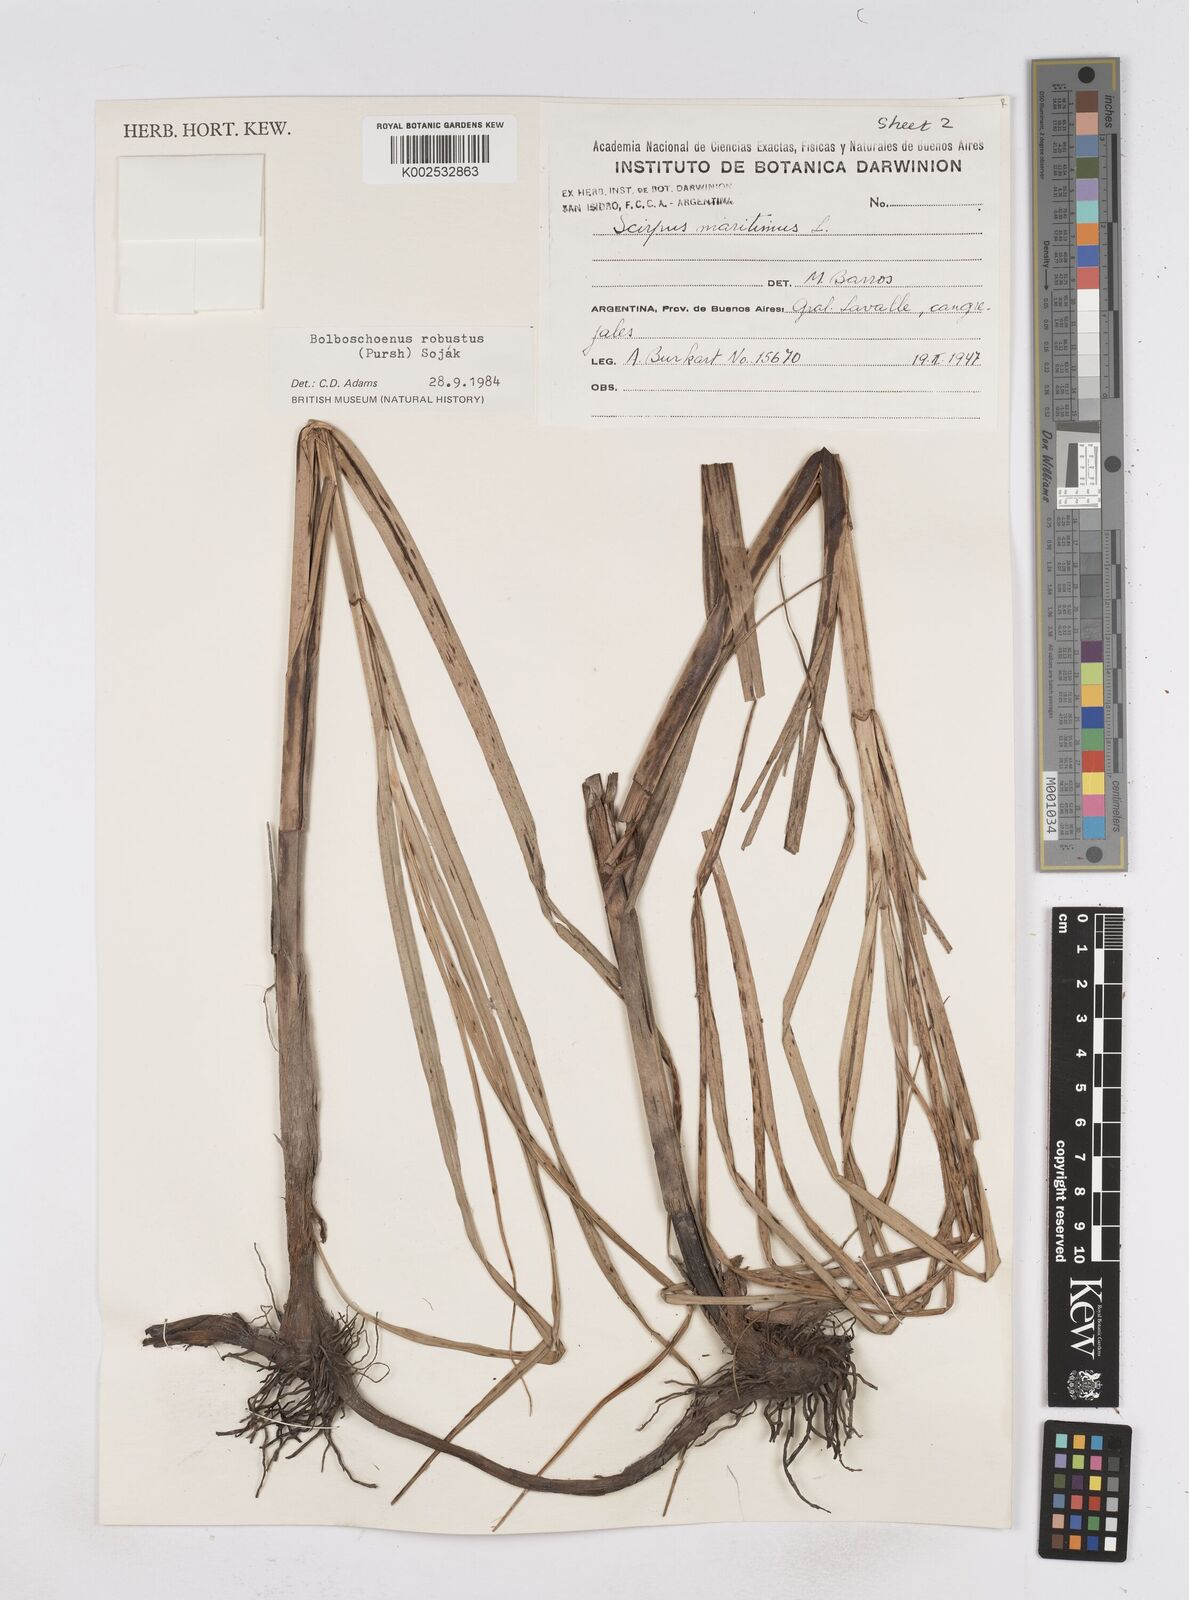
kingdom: Plantae
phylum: Tracheophyta
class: Liliopsida
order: Poales
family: Cyperaceae
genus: Bolboschoenus
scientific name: Bolboschoenus robustus
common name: Seacoast bulrush
